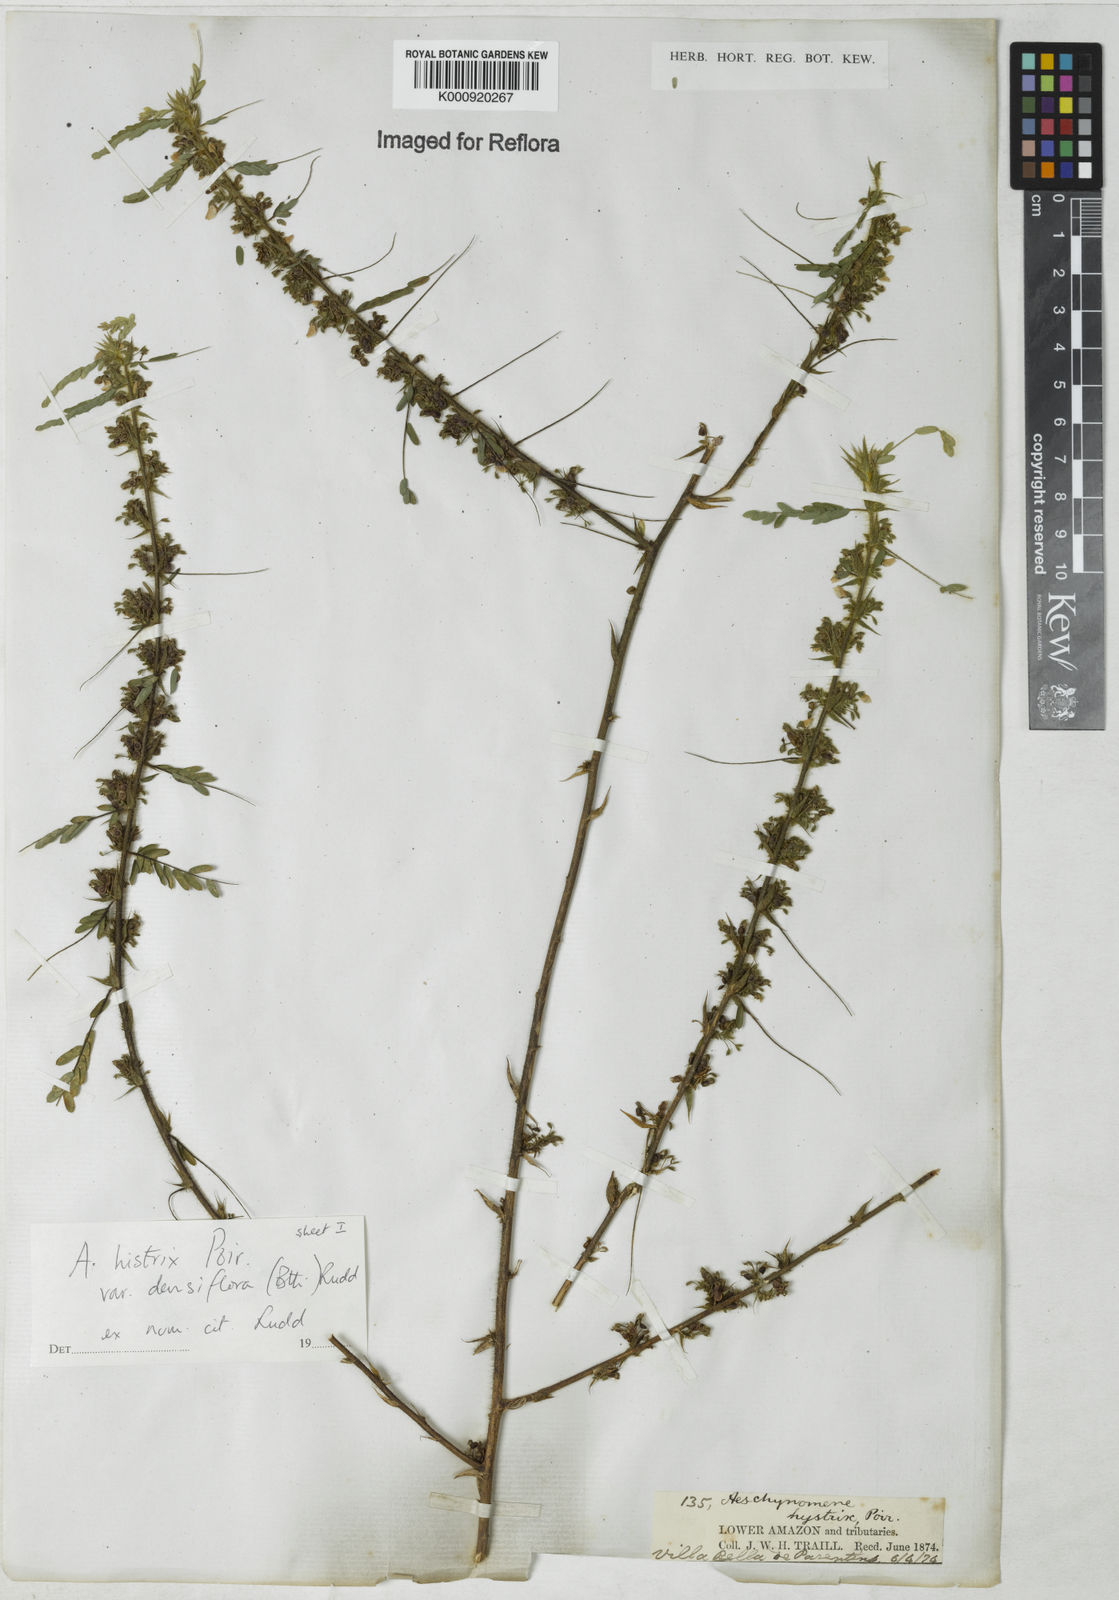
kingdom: Plantae
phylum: Tracheophyta
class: Magnoliopsida
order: Fabales
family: Fabaceae
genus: Ctenodon
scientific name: Ctenodon histrix
